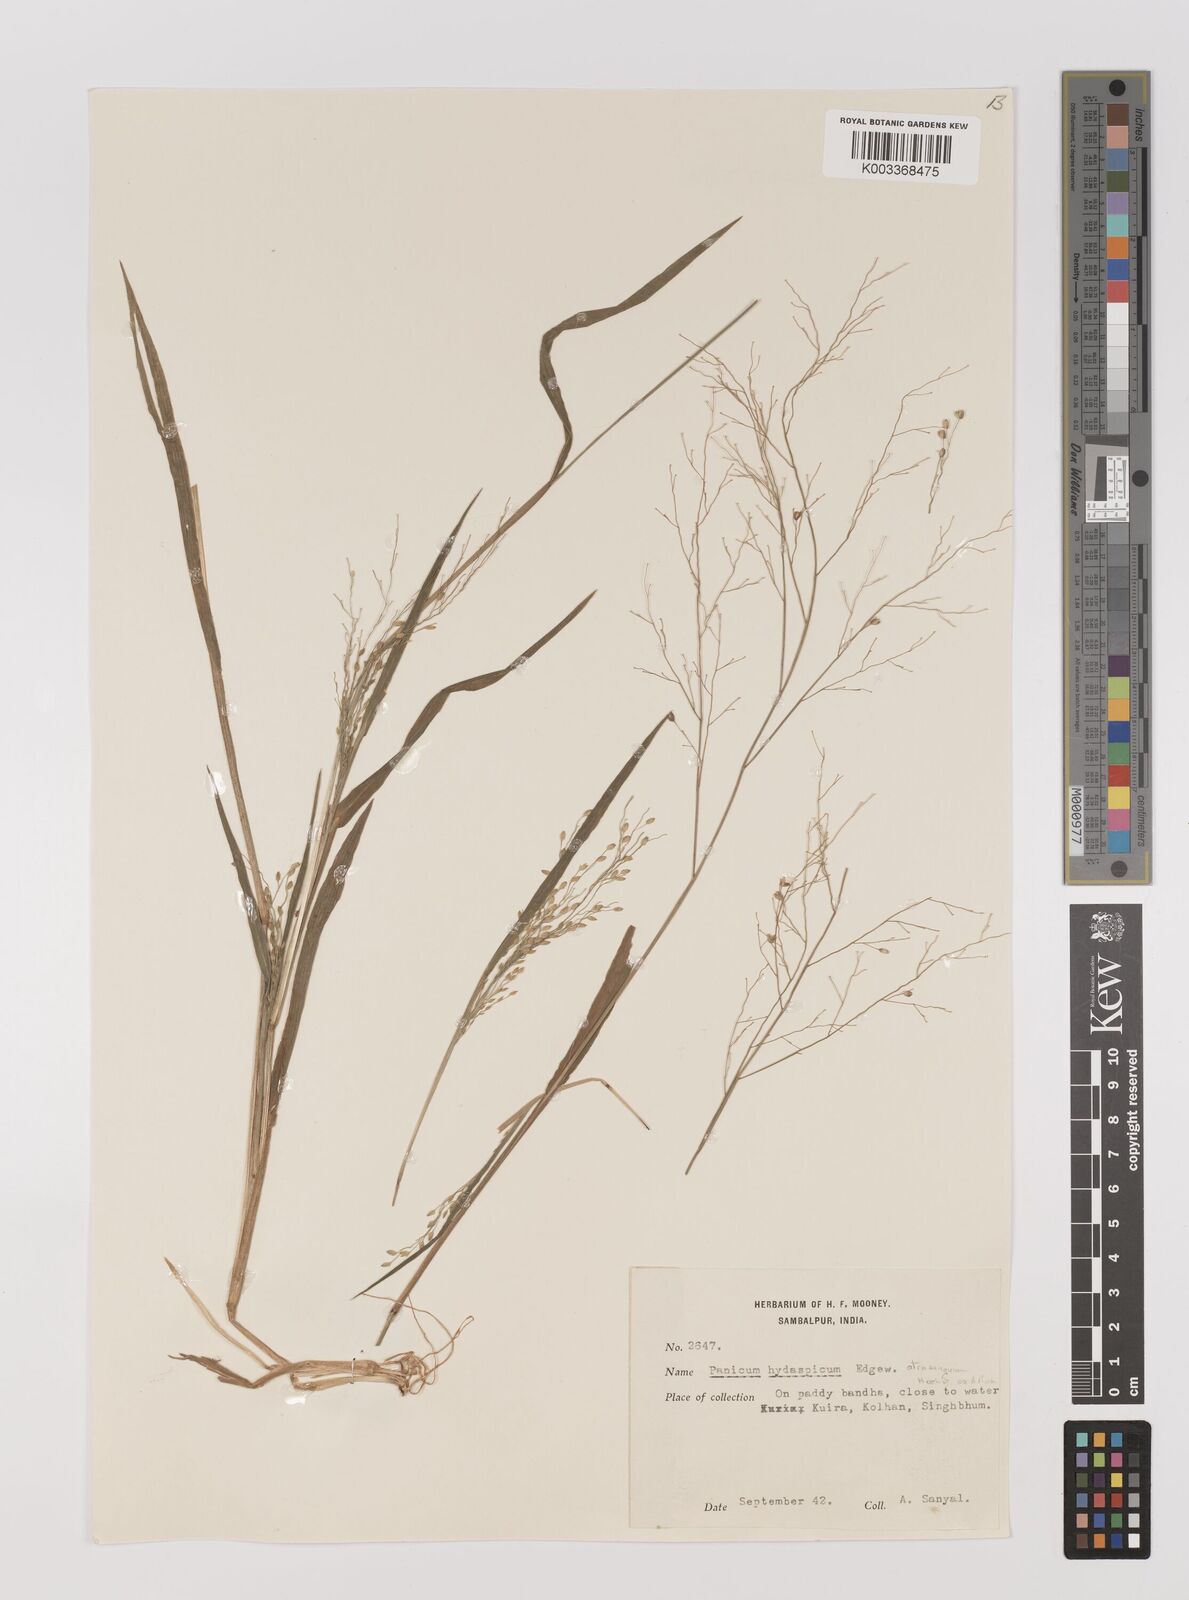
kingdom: Plantae
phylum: Tracheophyta
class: Liliopsida
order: Poales
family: Poaceae
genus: Panicum
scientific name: Panicum sumatrense
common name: Little millet
